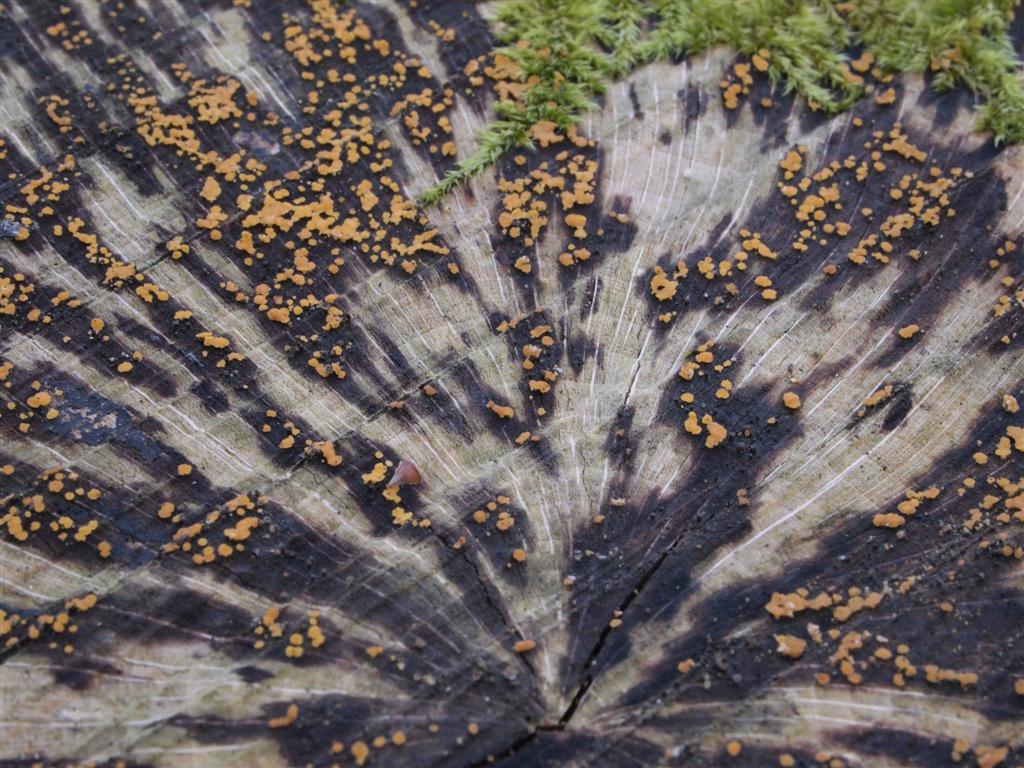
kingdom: Fungi
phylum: Ascomycota
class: Leotiomycetes
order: Helotiales
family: Helotiaceae
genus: Bispora
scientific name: Bispora pallescens
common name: måtte-snitskive
